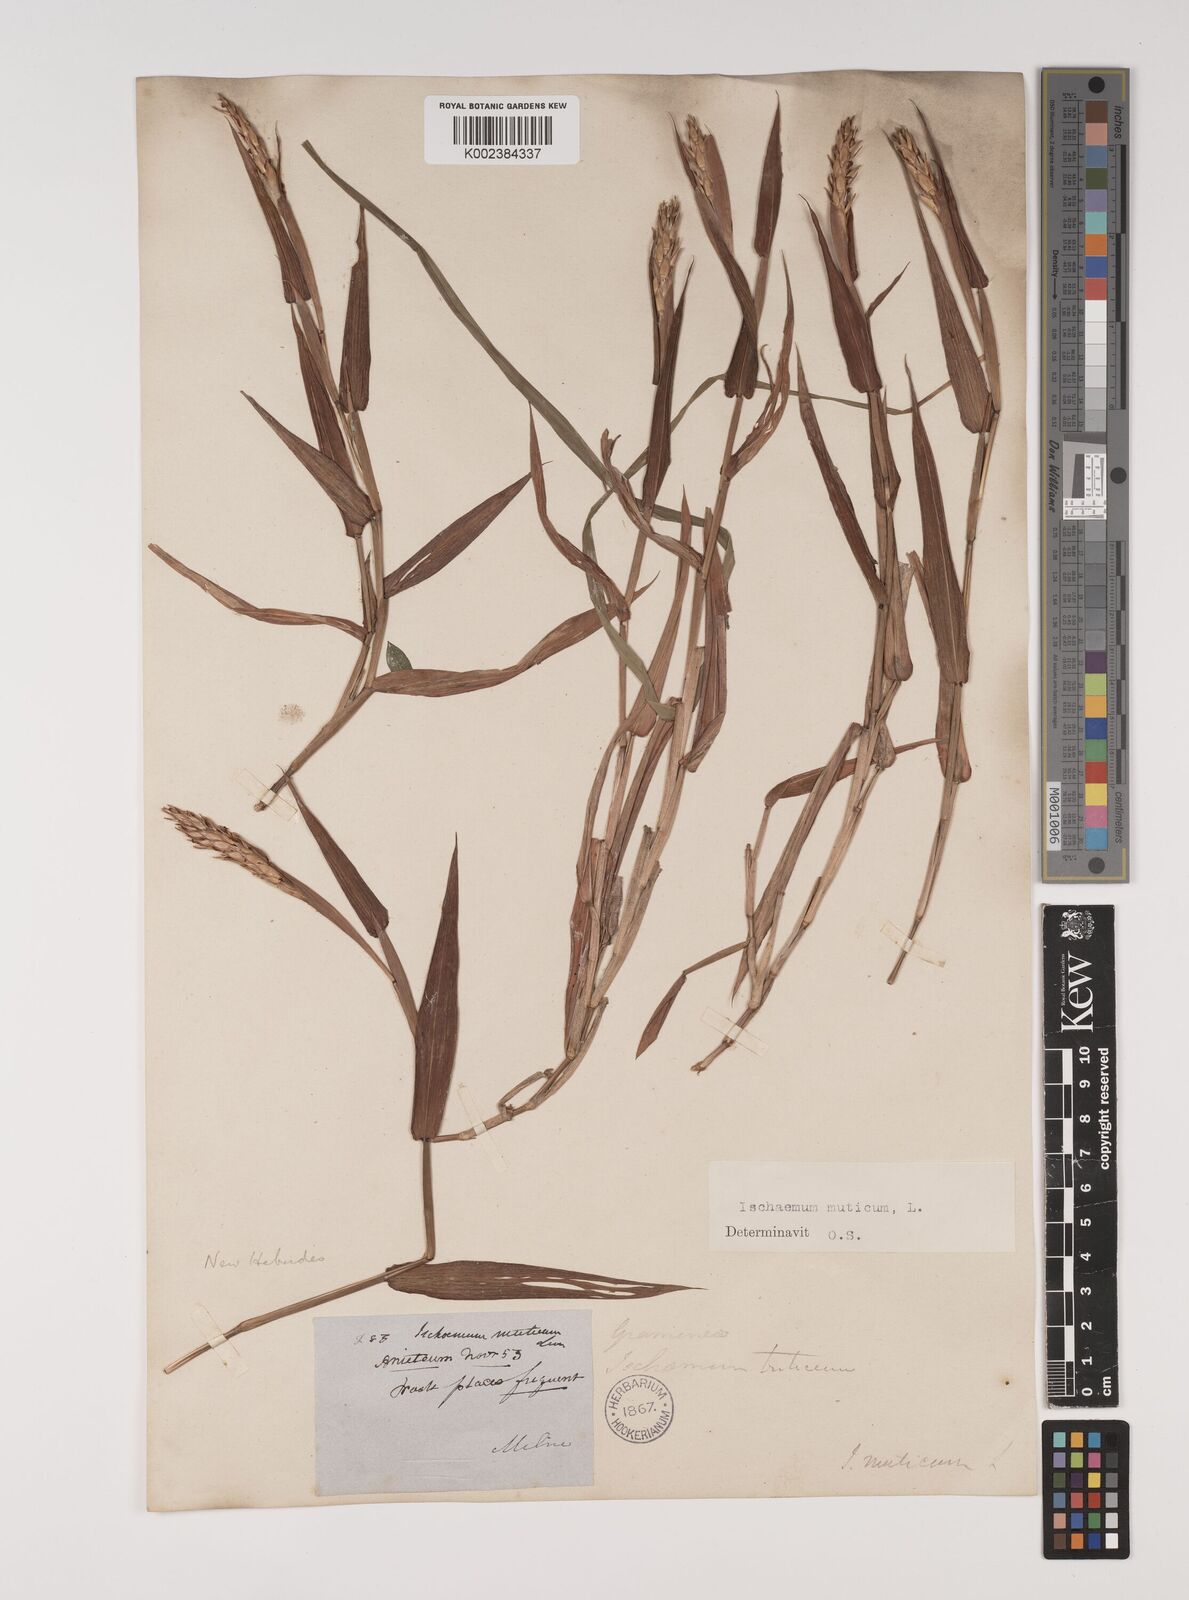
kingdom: Plantae
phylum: Tracheophyta
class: Liliopsida
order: Poales
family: Poaceae
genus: Ischaemum
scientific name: Ischaemum muticum
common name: Drought grass
